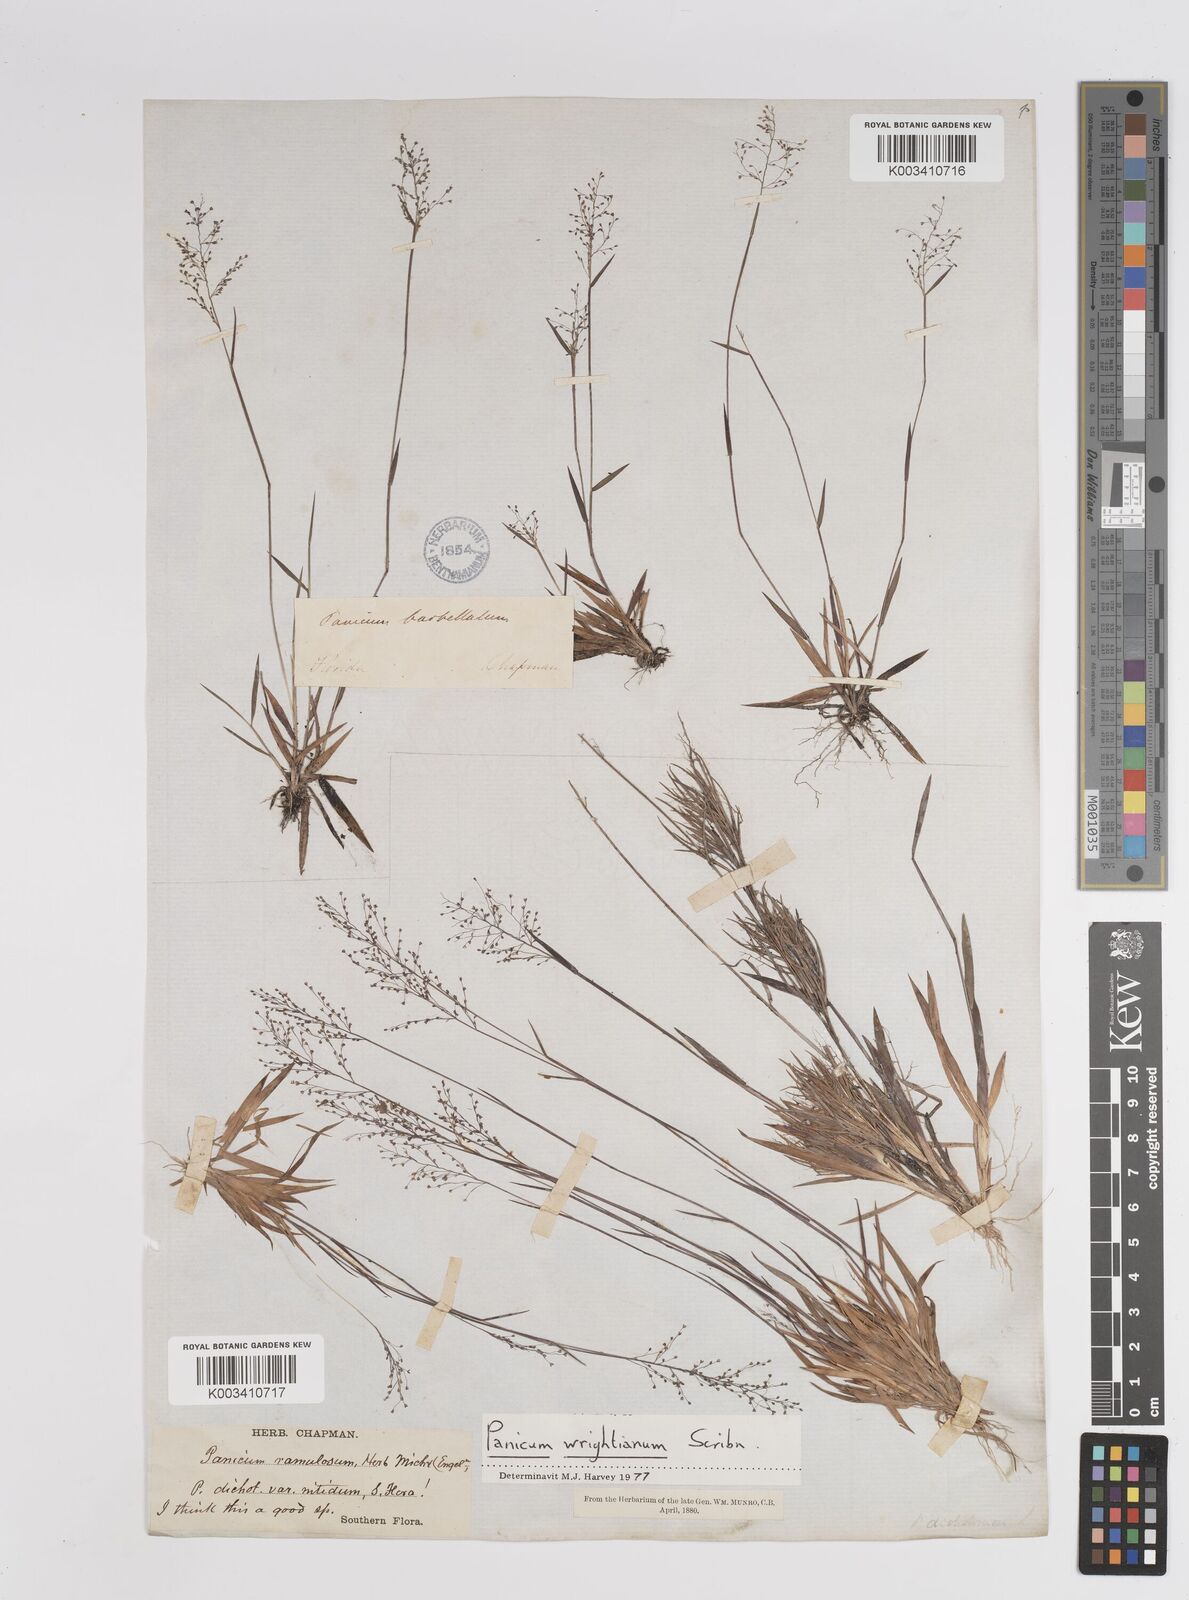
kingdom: Plantae
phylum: Tracheophyta
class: Liliopsida
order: Poales
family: Poaceae
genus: Dichanthelium
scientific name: Dichanthelium wrightianum
